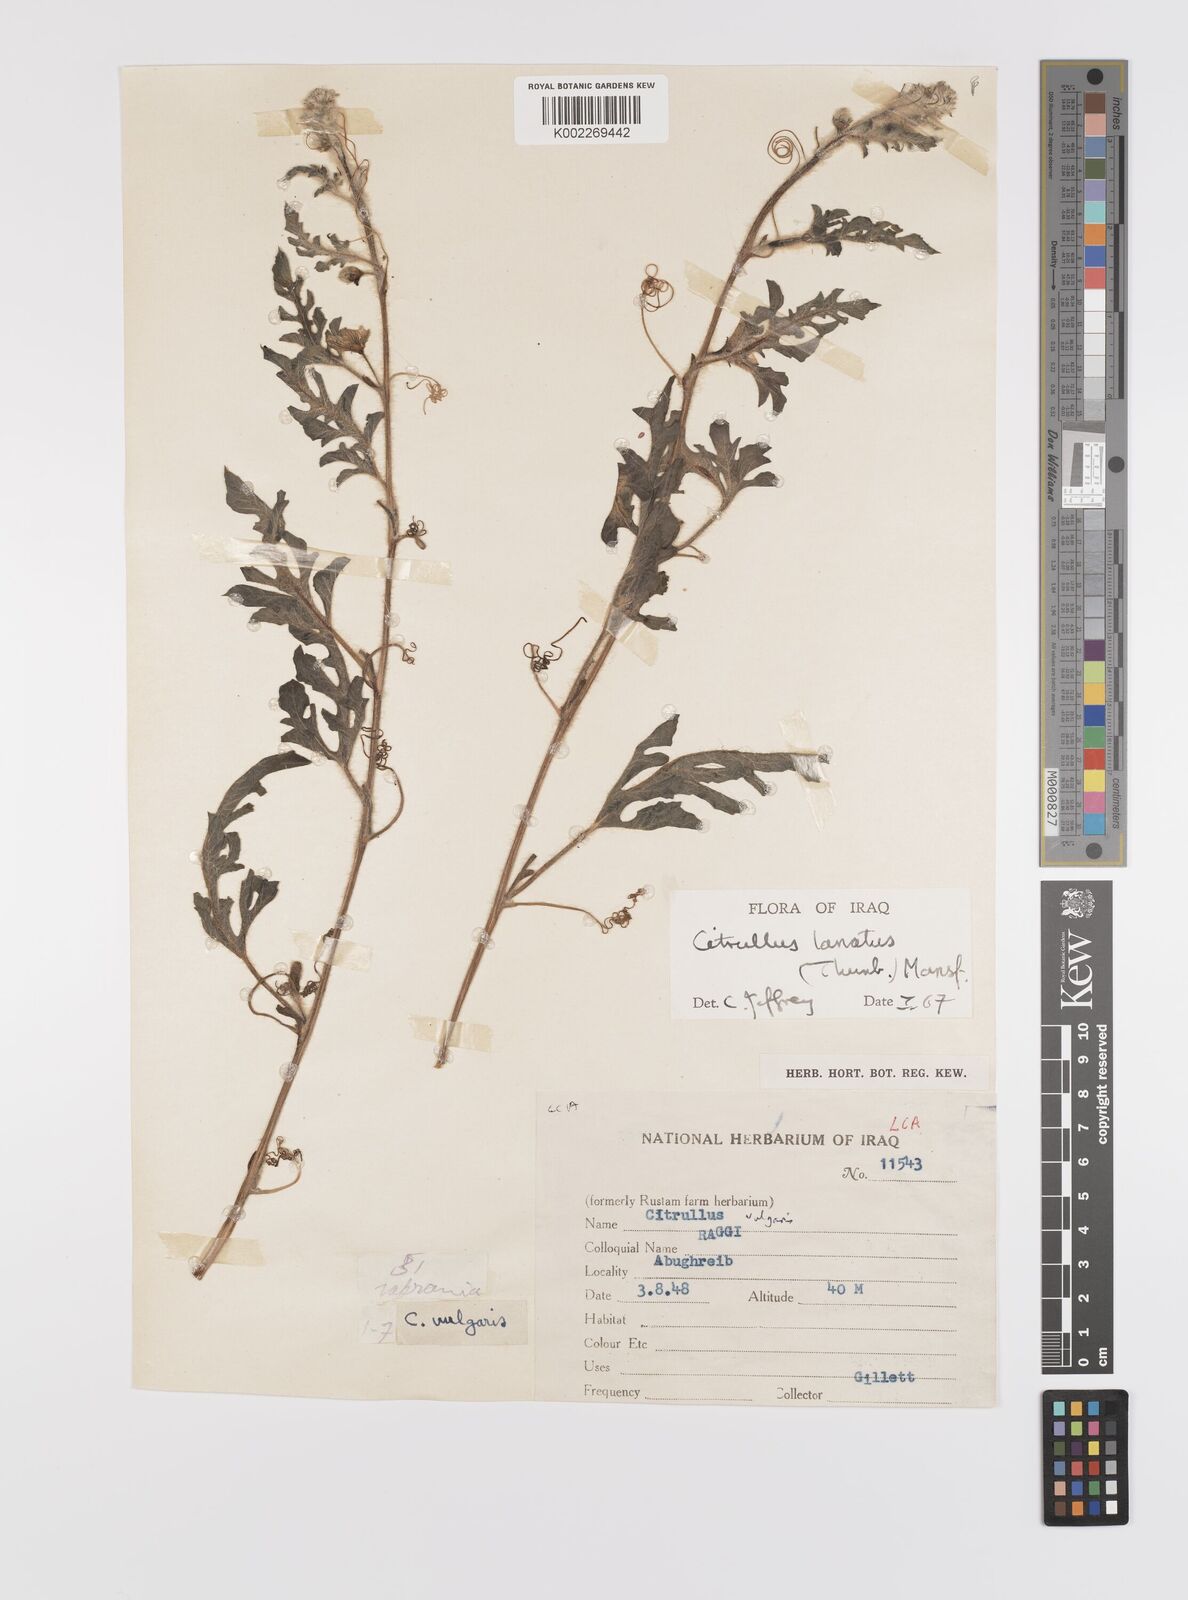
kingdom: Plantae
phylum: Tracheophyta
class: Magnoliopsida
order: Cucurbitales
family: Cucurbitaceae
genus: Citrullus
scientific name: Citrullus lanatus
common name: Watermelon
